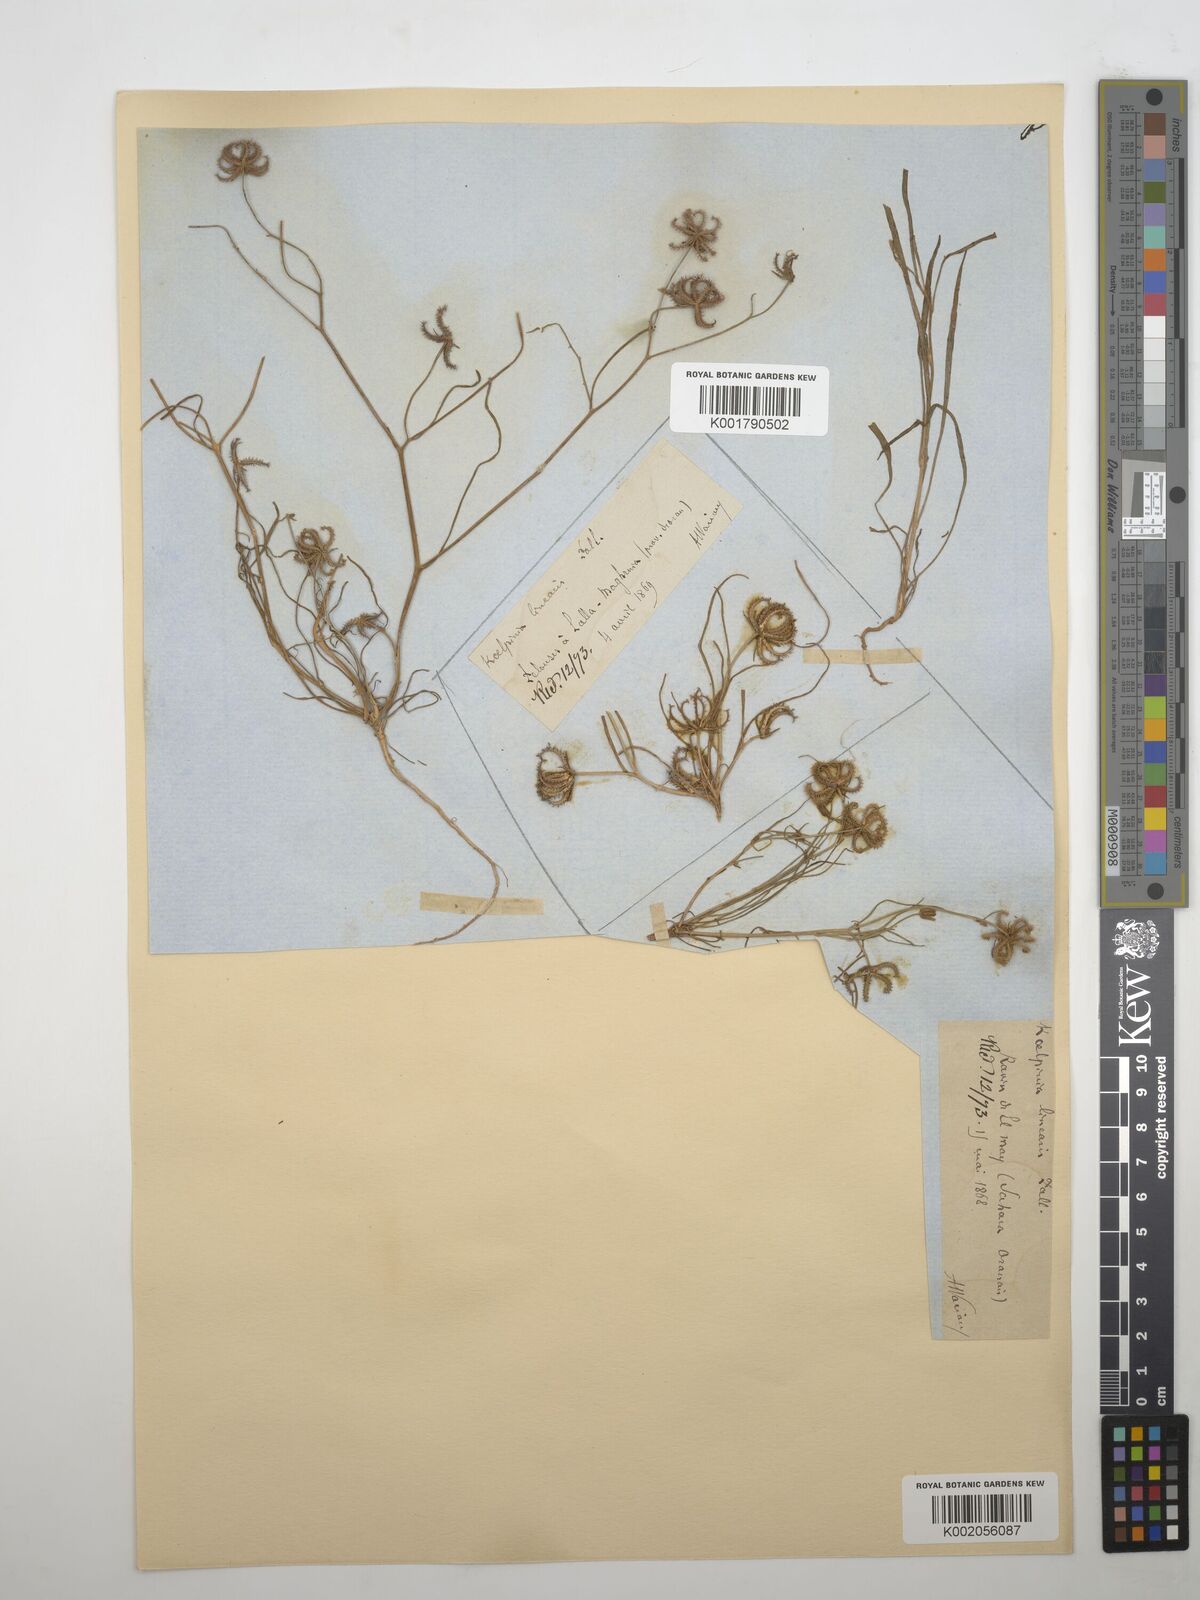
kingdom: Plantae
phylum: Tracheophyta
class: Magnoliopsida
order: Asterales
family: Asteraceae
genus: Koelpinia
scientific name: Koelpinia linearis
